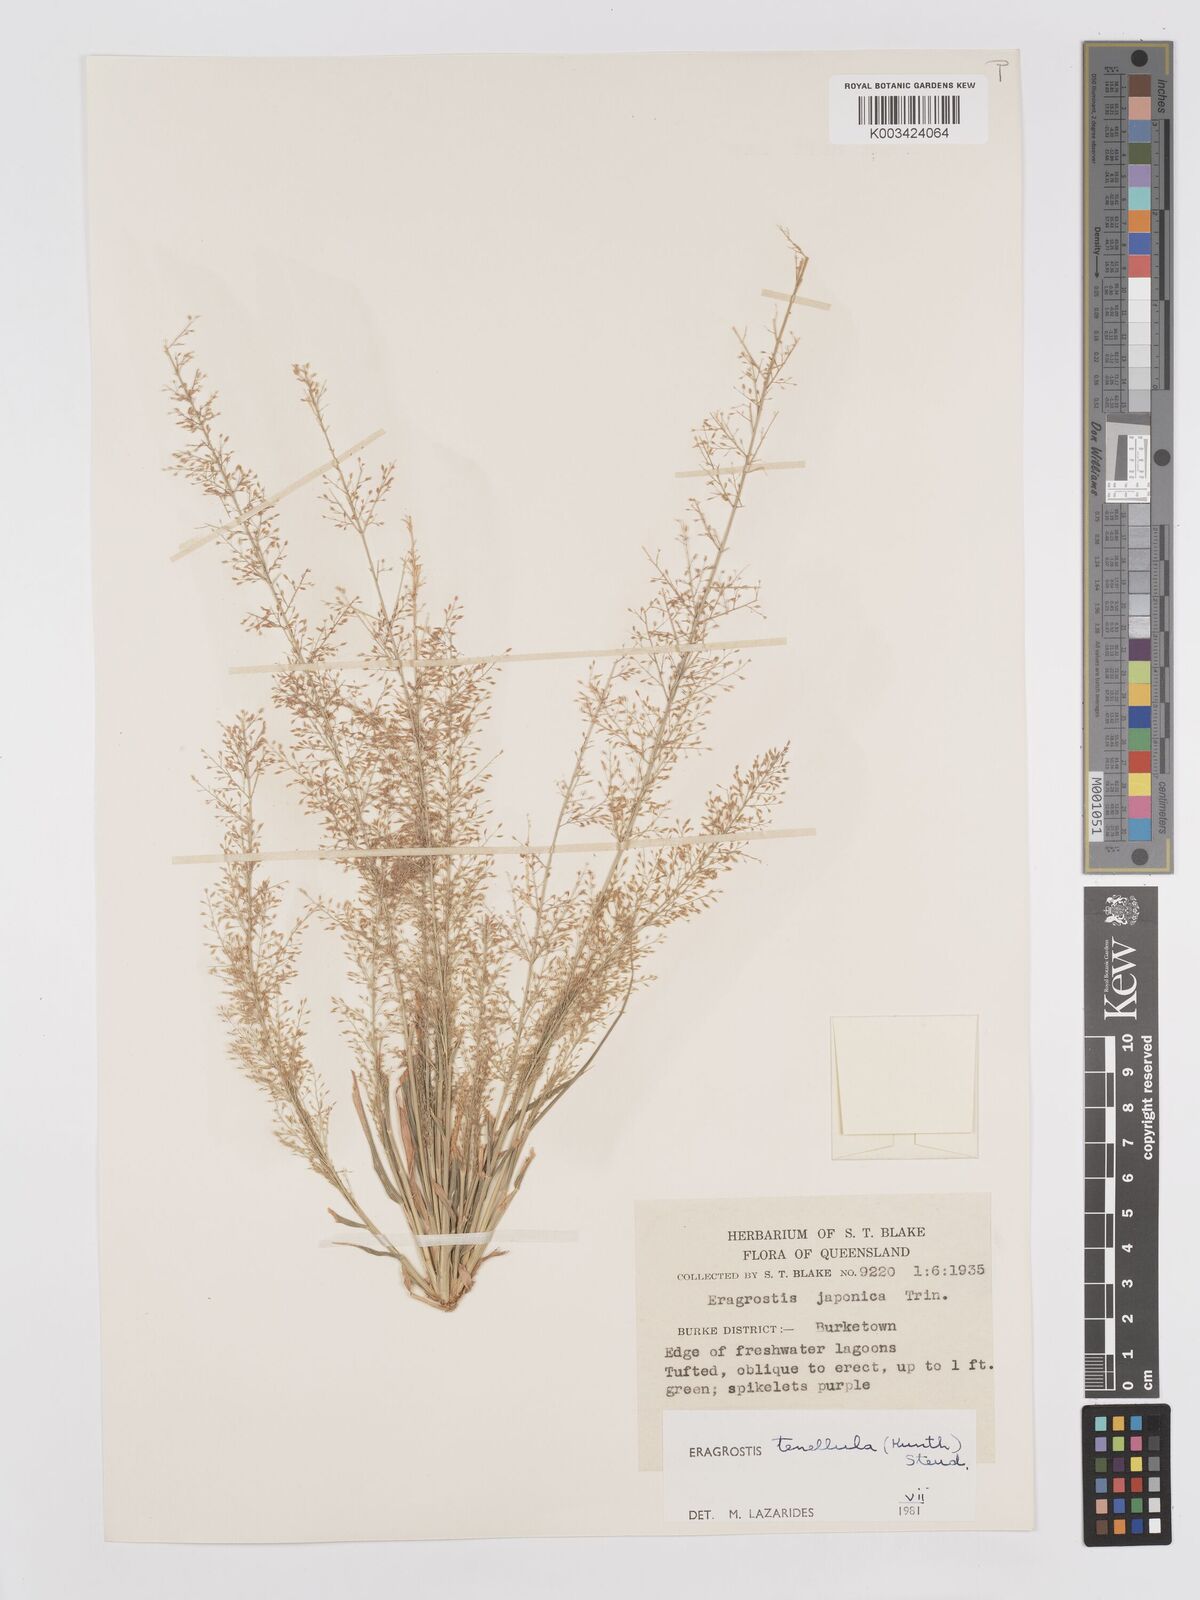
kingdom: Plantae
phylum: Tracheophyta
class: Liliopsida
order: Poales
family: Poaceae
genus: Eragrostis
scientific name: Eragrostis tenellula
